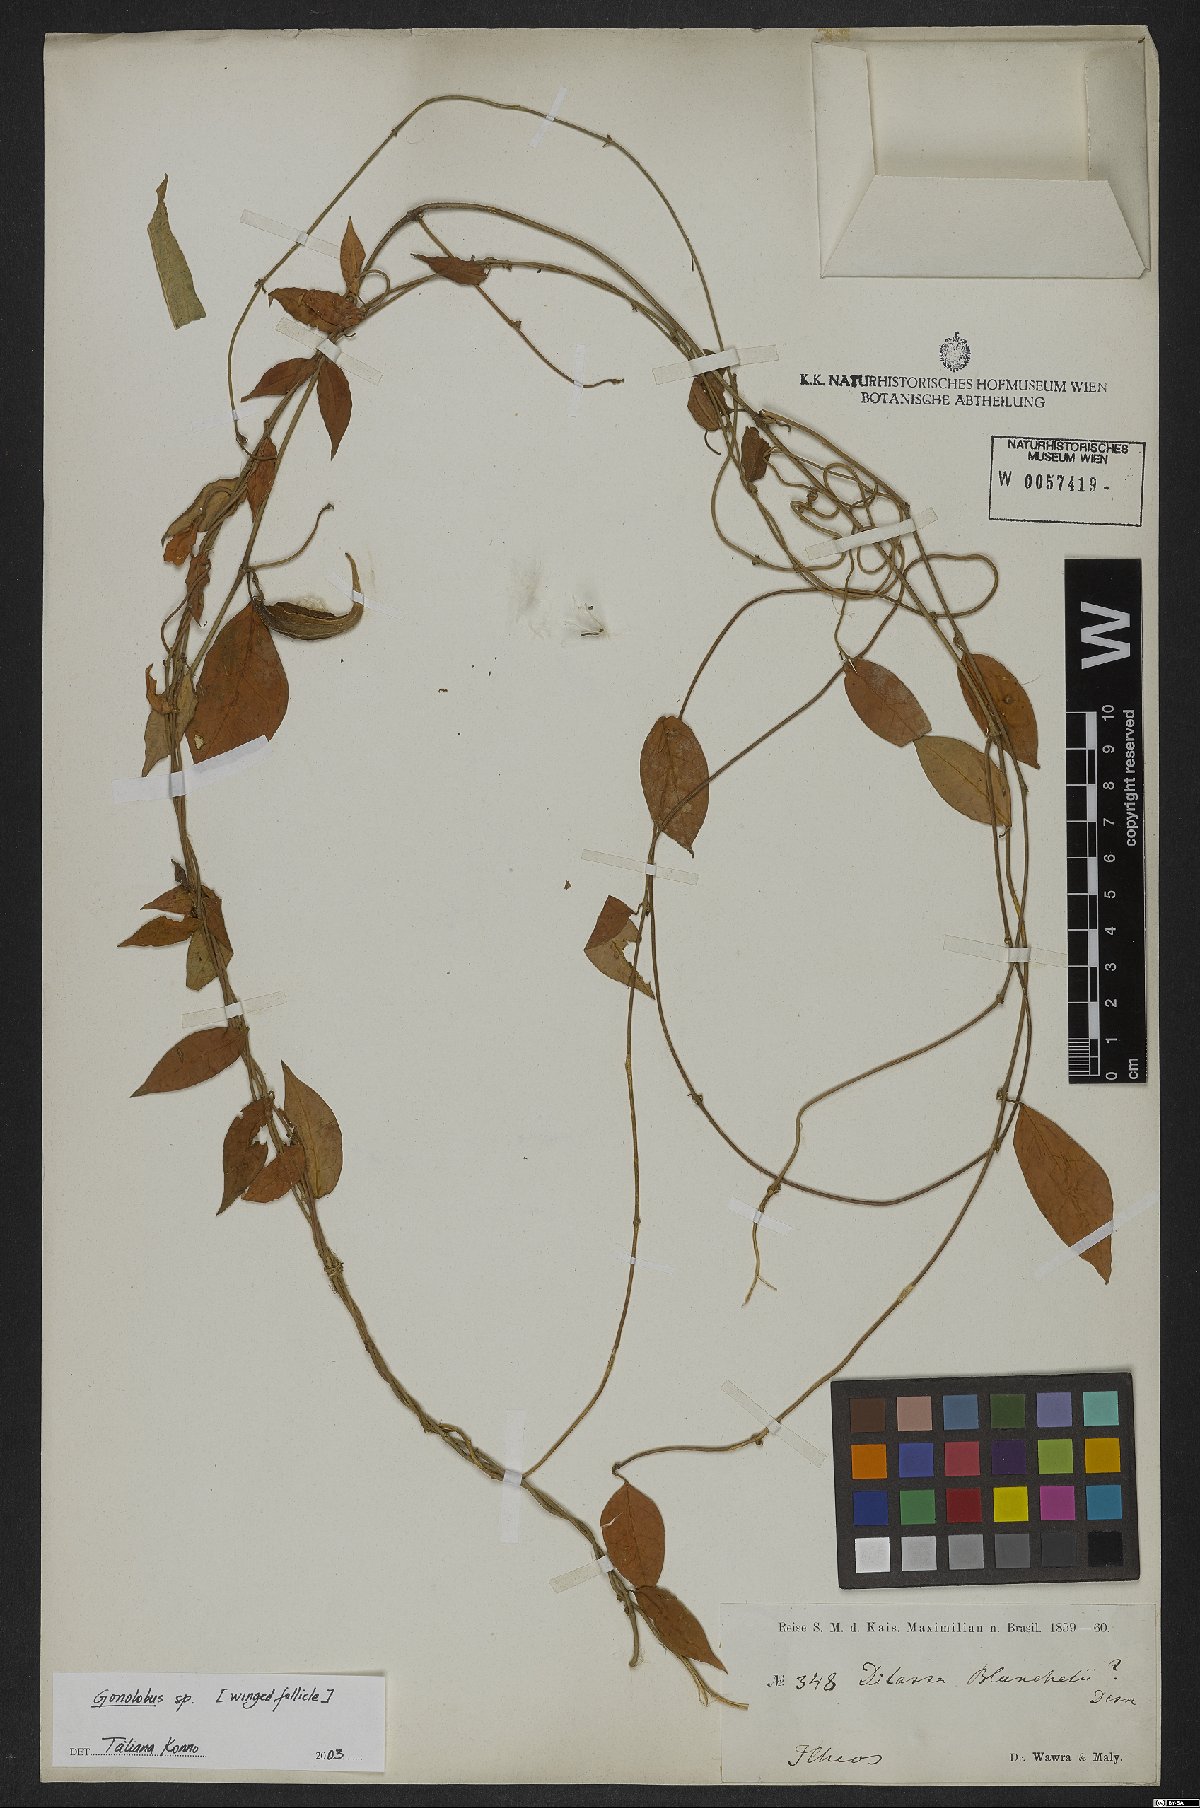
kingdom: Plantae
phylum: Tracheophyta
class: Magnoliopsida
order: Gentianales
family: Apocynaceae
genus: Gonolobus
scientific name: Gonolobus
